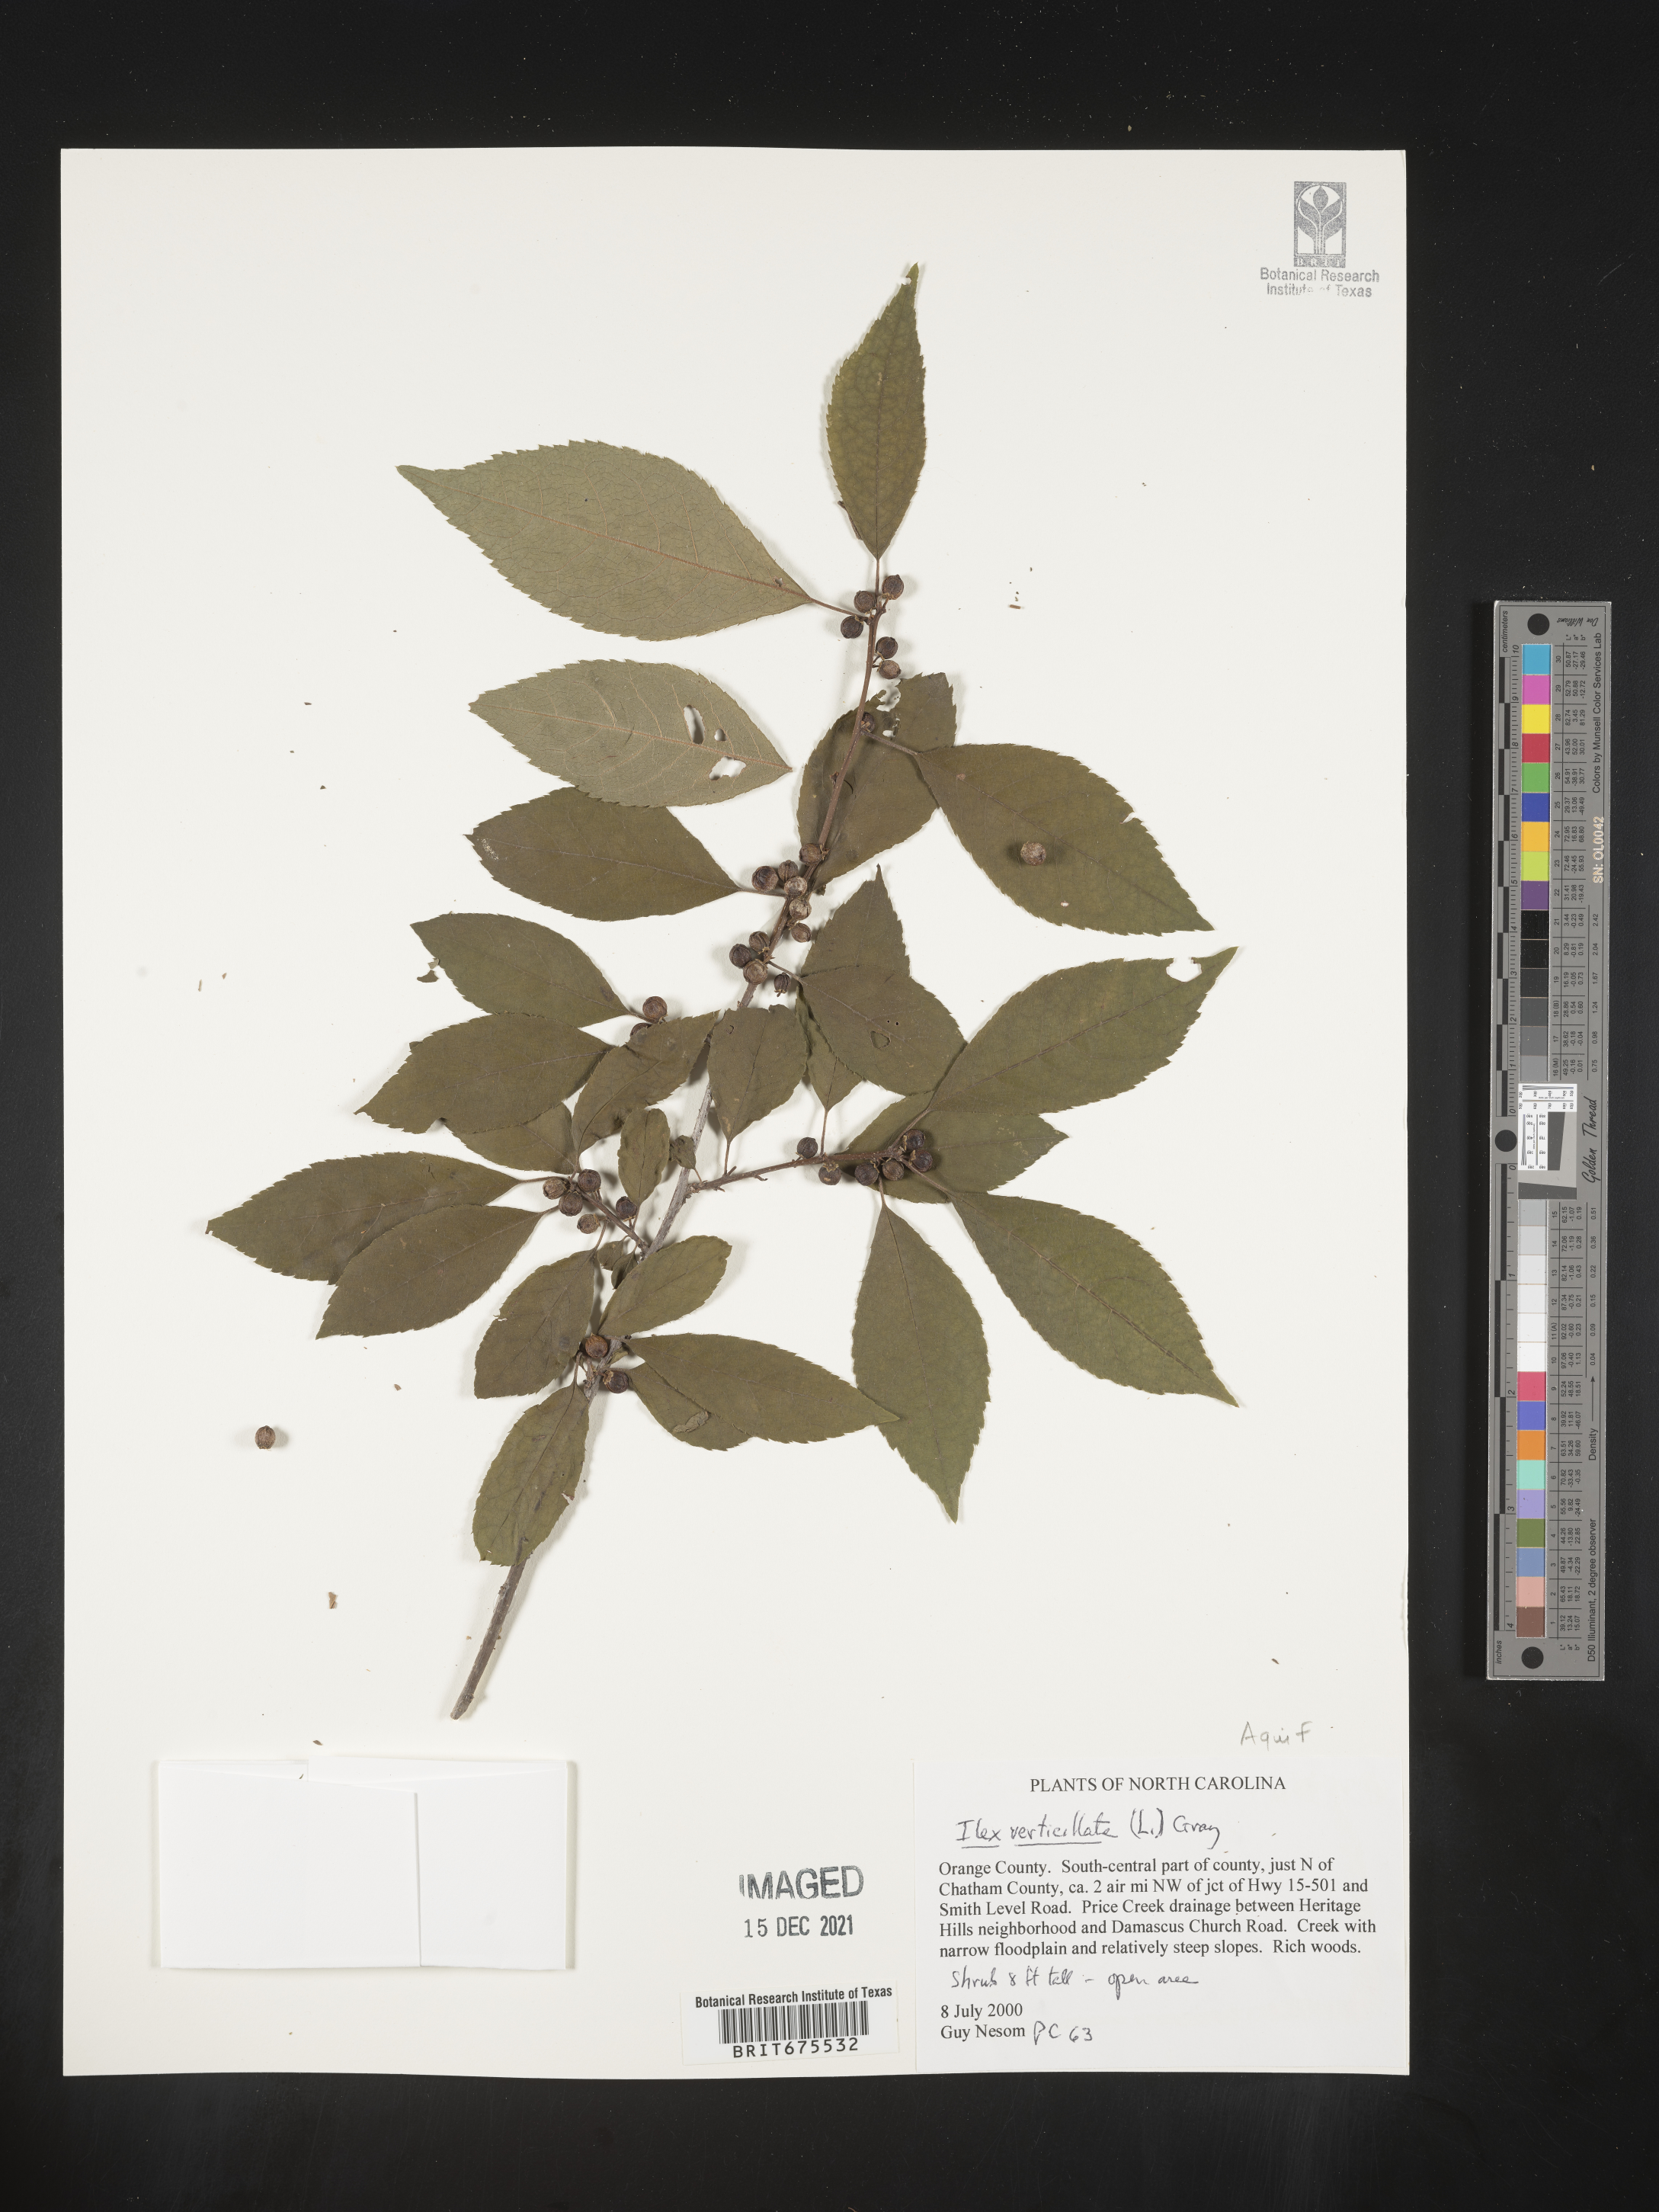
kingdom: Plantae
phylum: Tracheophyta
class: Magnoliopsida
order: Aquifoliales
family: Aquifoliaceae
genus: Ilex
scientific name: Ilex verticillata
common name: Virginia winterberry
